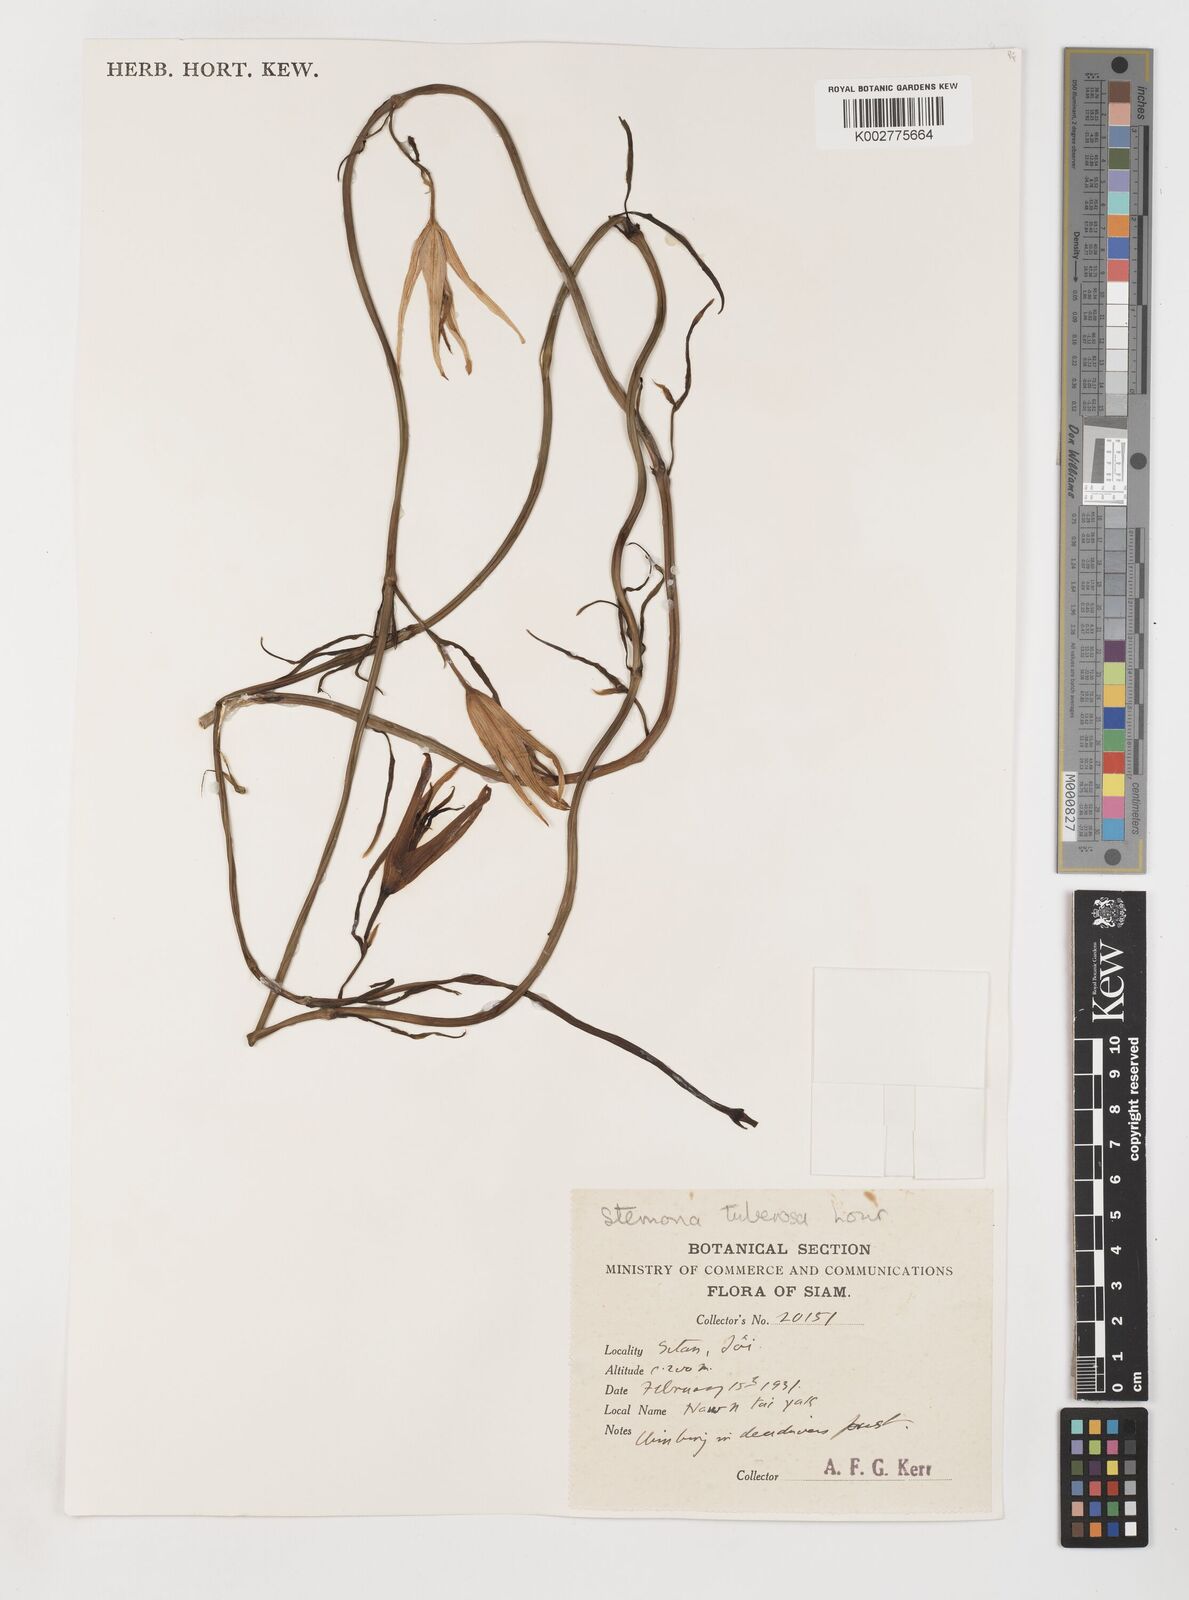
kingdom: Plantae
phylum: Tracheophyta
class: Liliopsida
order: Pandanales
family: Stemonaceae
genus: Stemona
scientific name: Stemona tuberosa
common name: Stemona
